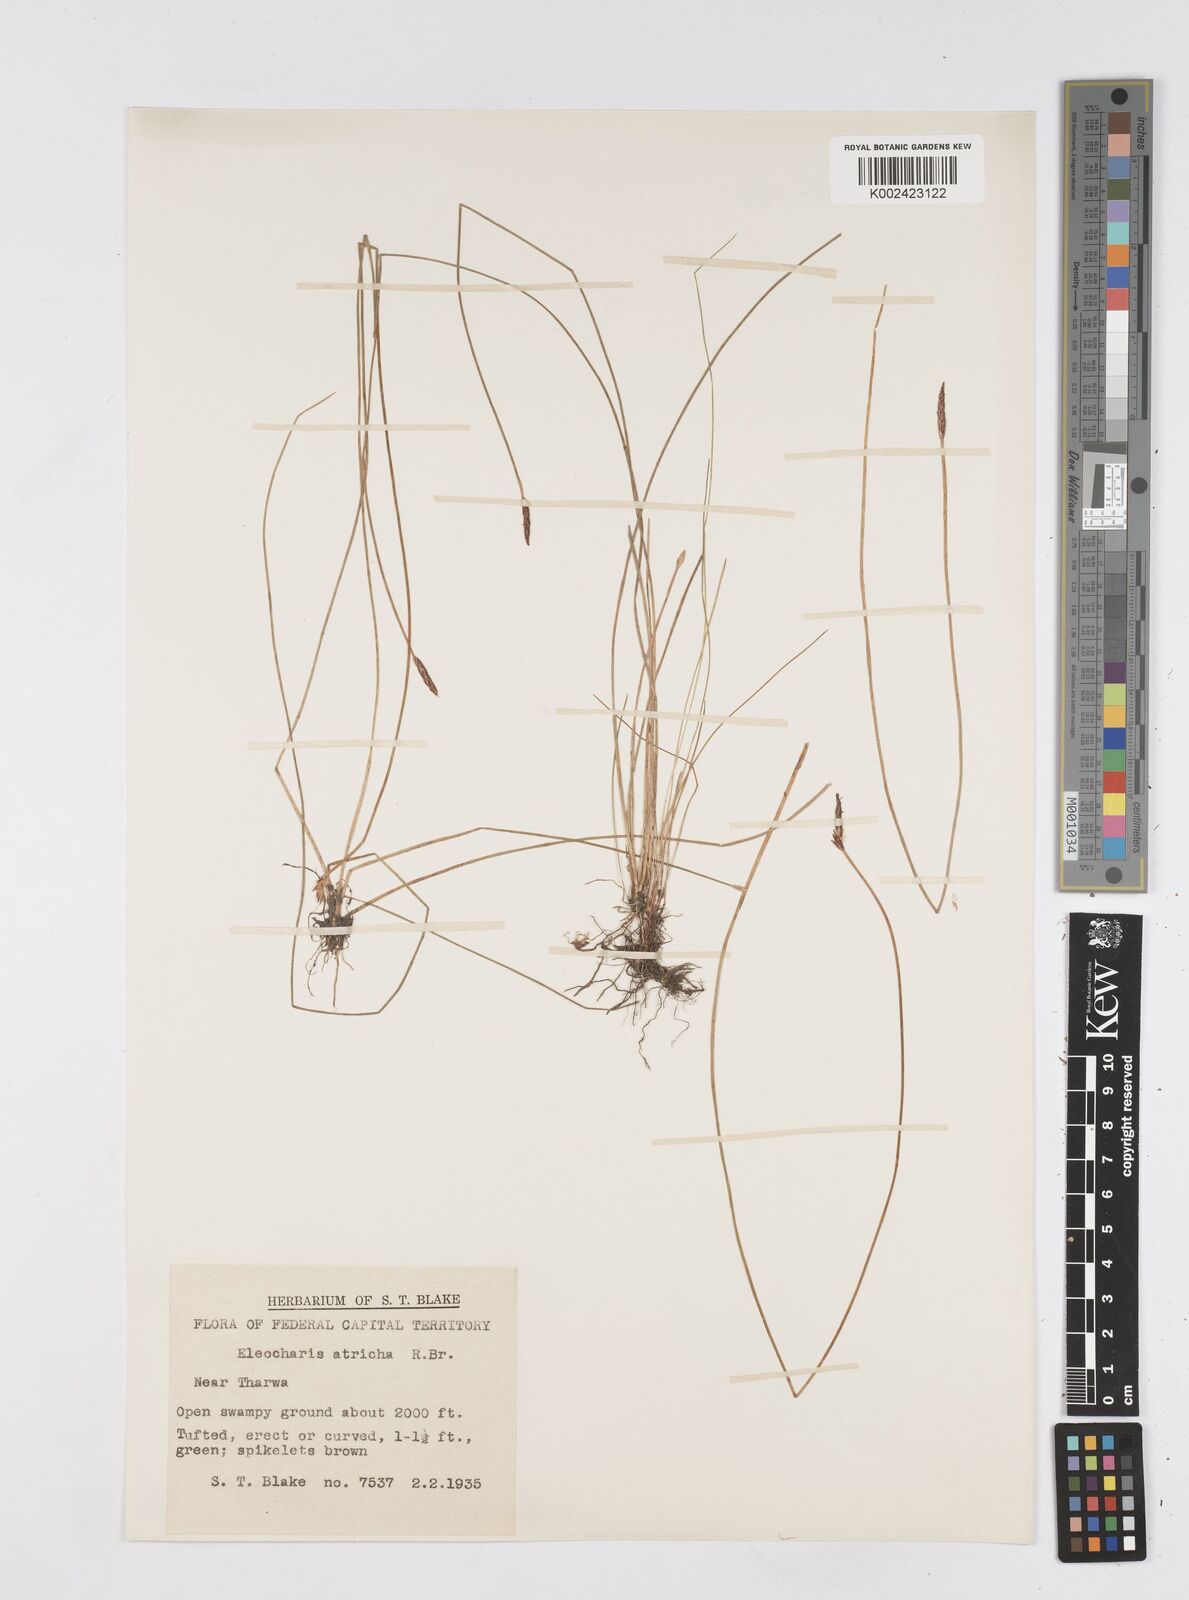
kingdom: Plantae
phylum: Tracheophyta
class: Liliopsida
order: Poales
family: Cyperaceae
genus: Eleocharis
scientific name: Eleocharis acicularis
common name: Needle spike-rush
